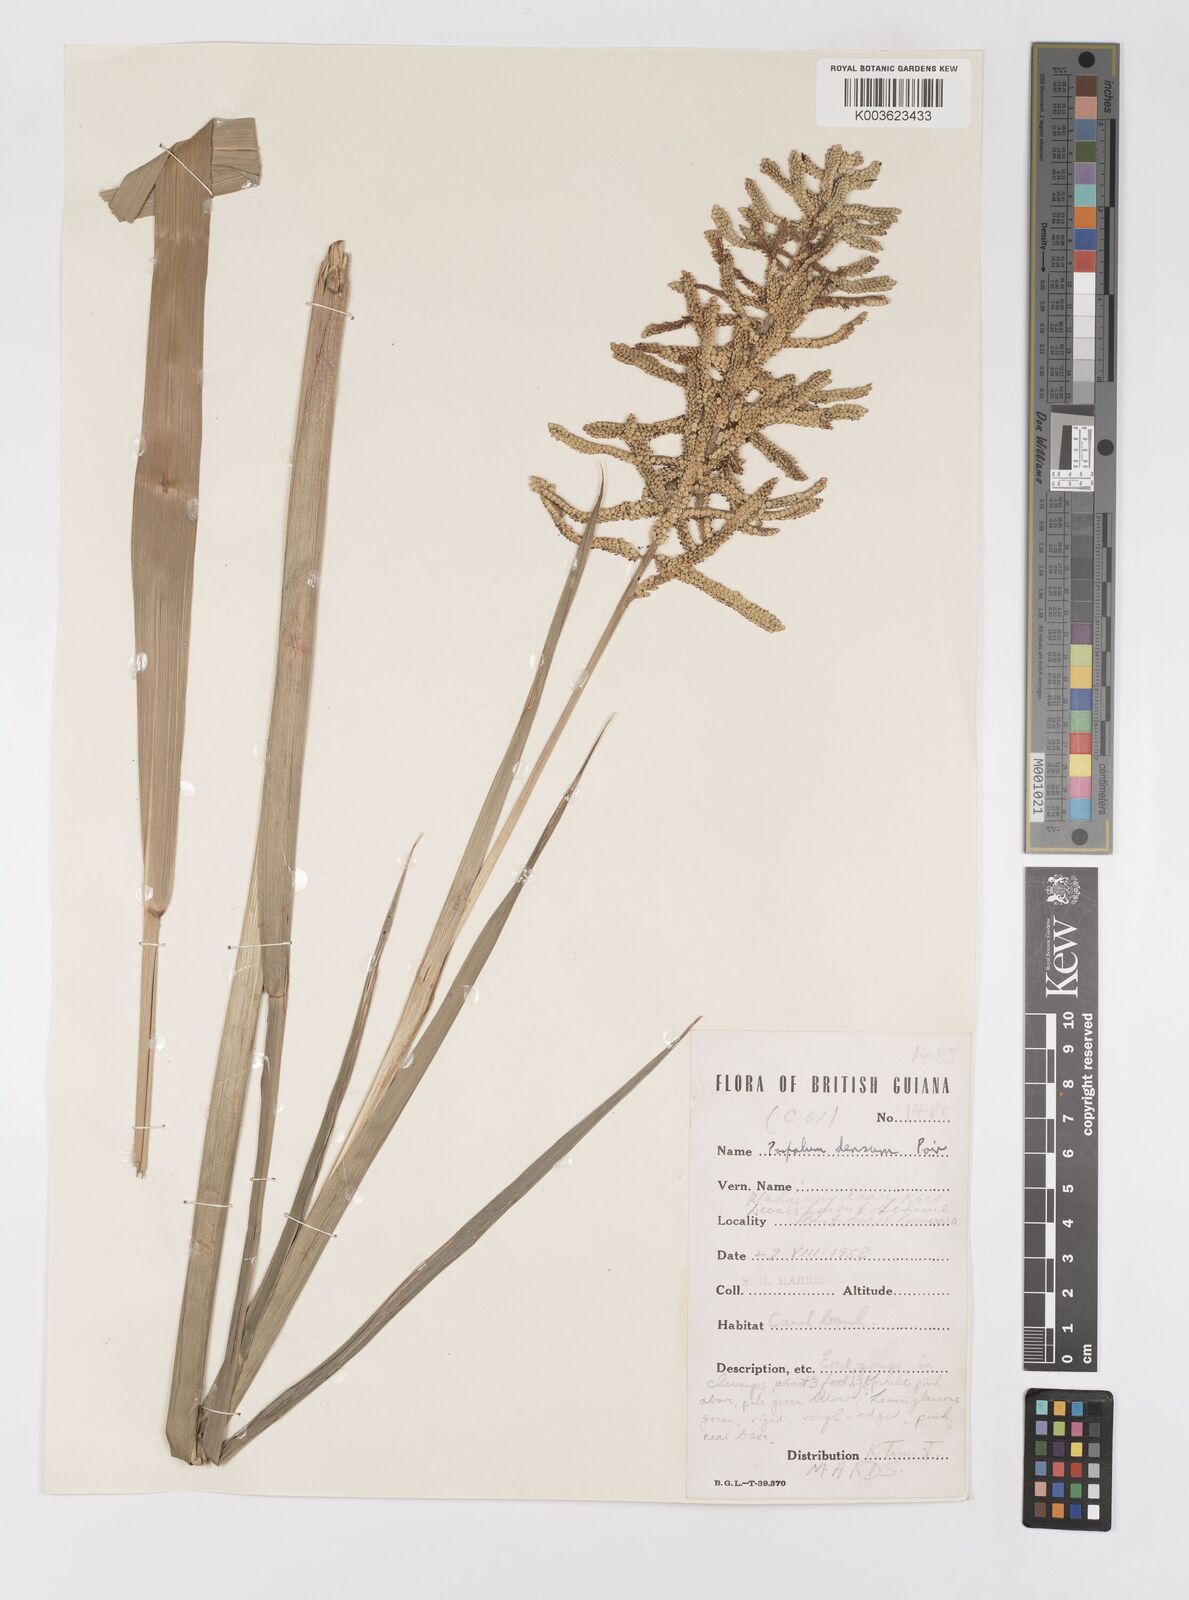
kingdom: Plantae
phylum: Tracheophyta
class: Liliopsida
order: Poales
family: Poaceae
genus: Paspalum
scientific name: Paspalum densum
